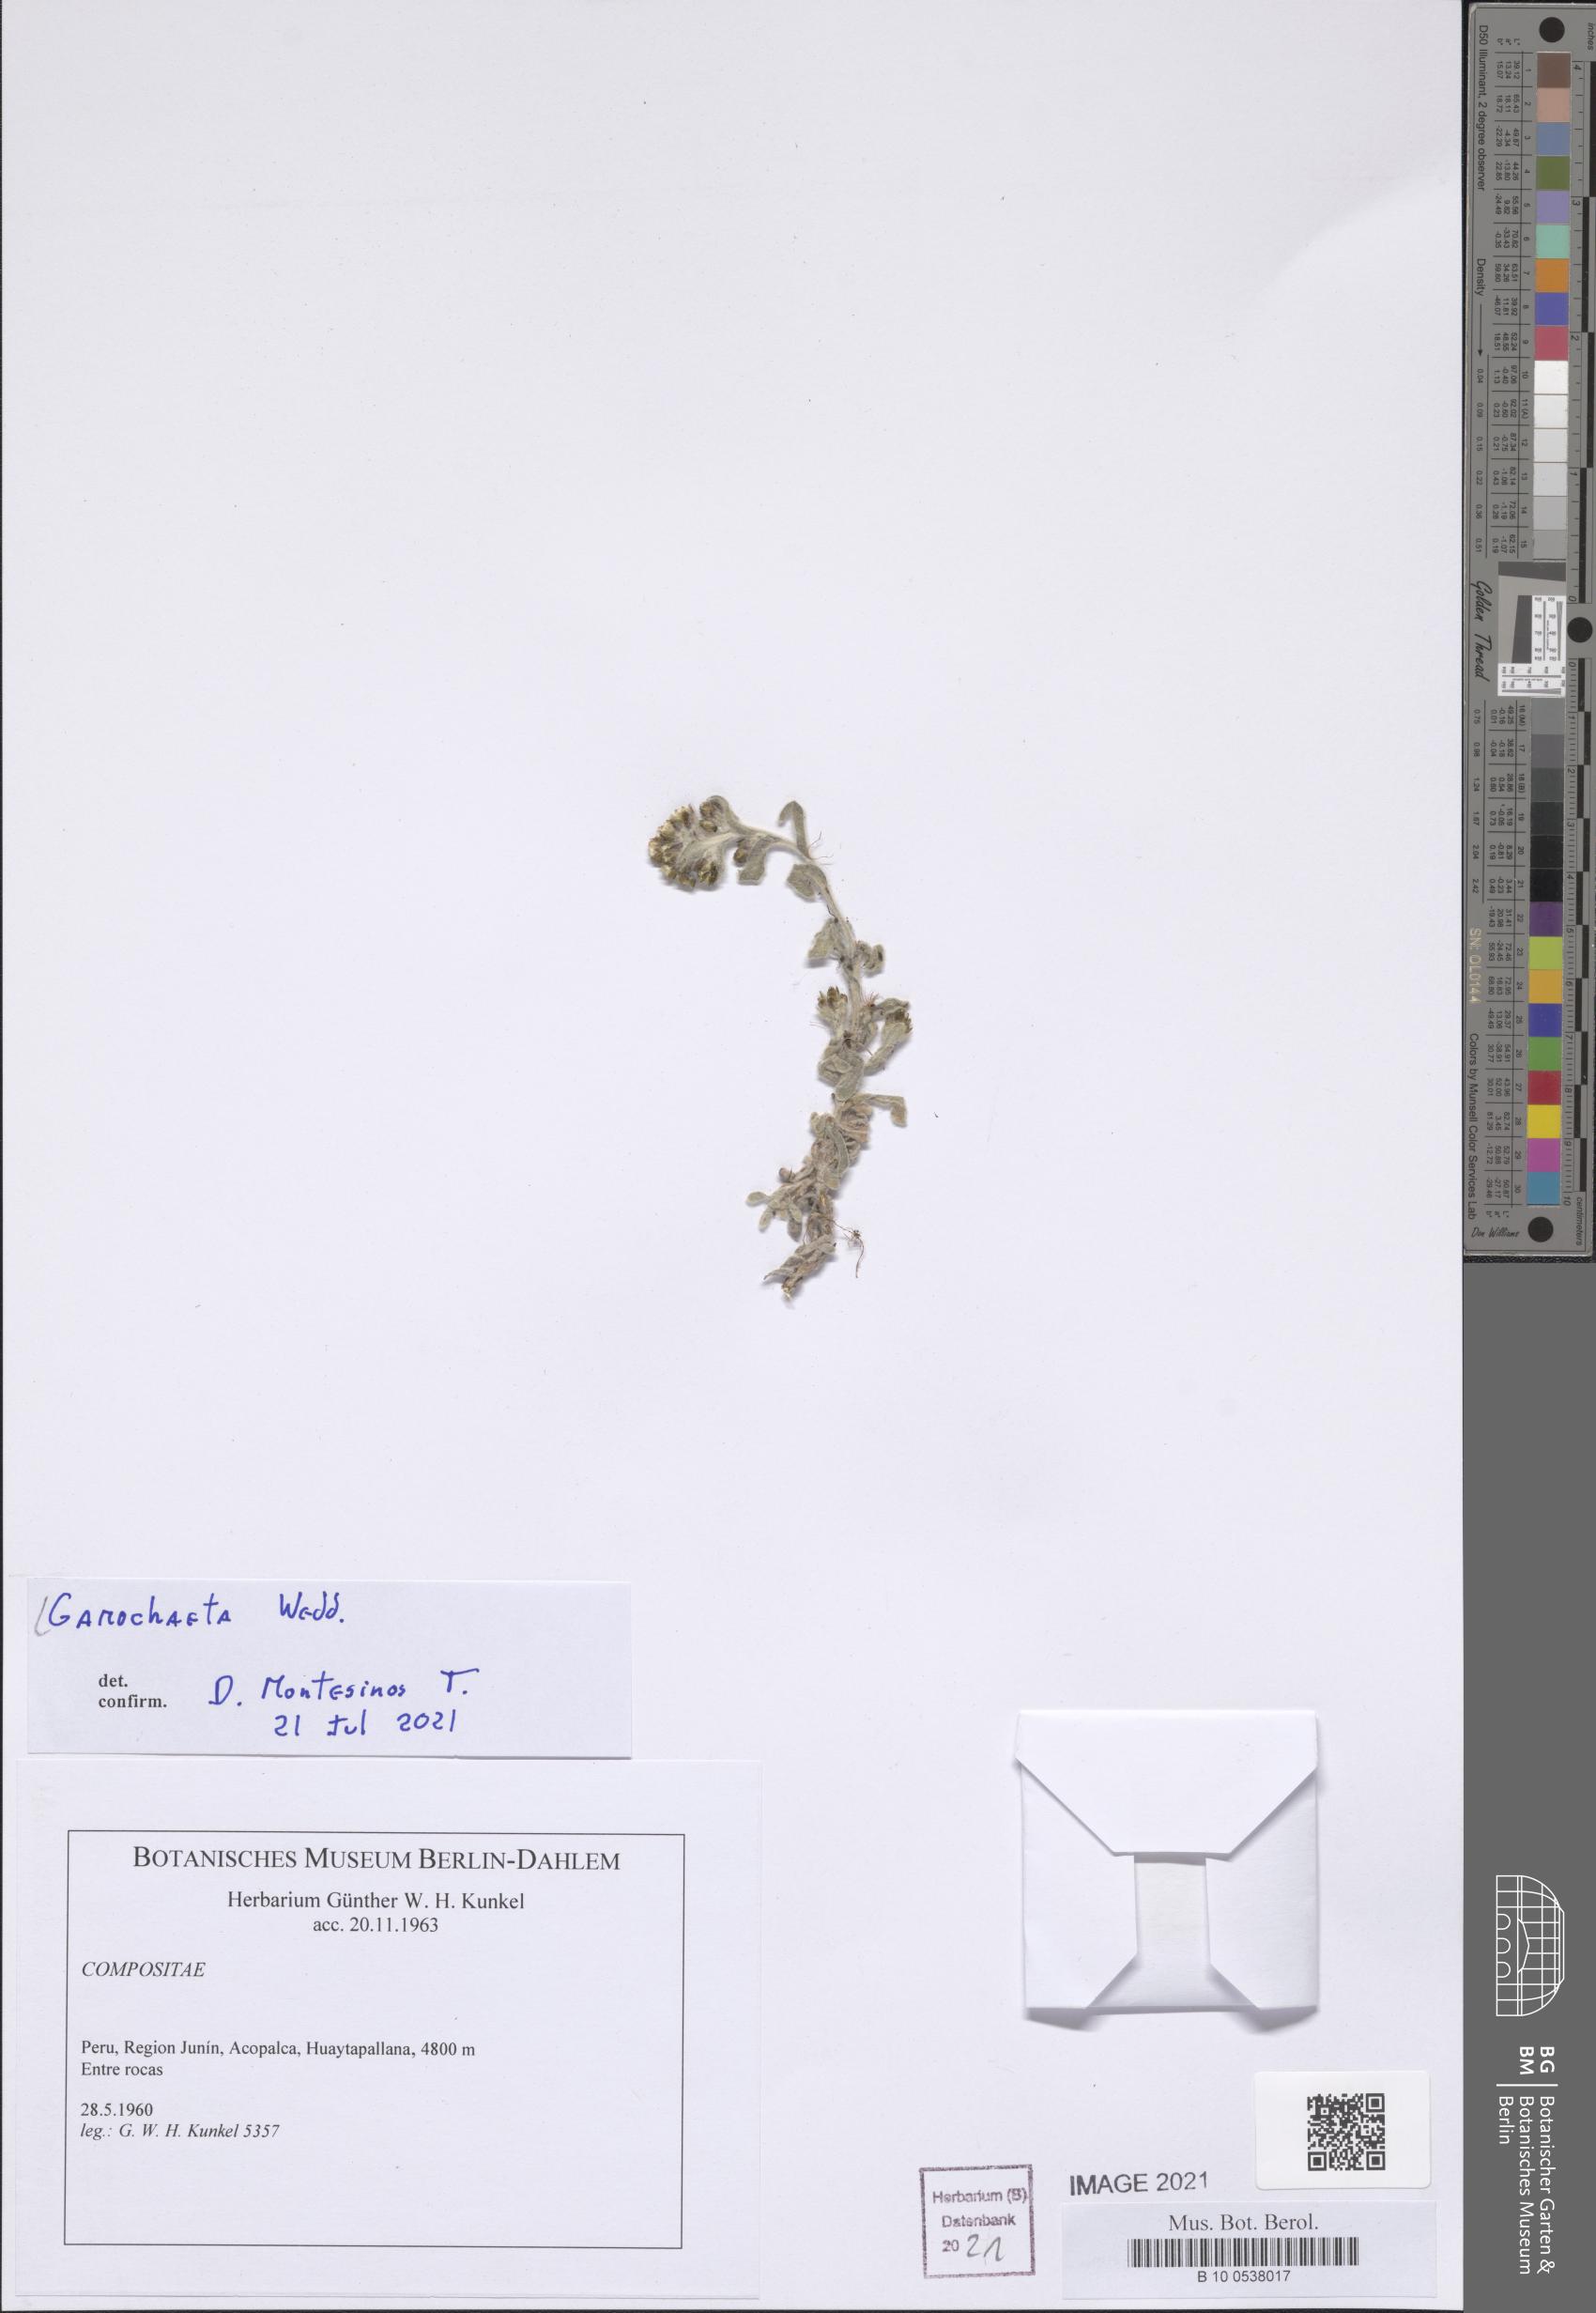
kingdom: Plantae
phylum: Tracheophyta
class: Magnoliopsida
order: Asterales
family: Asteraceae
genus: Gamochaeta
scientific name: Gamochaeta
